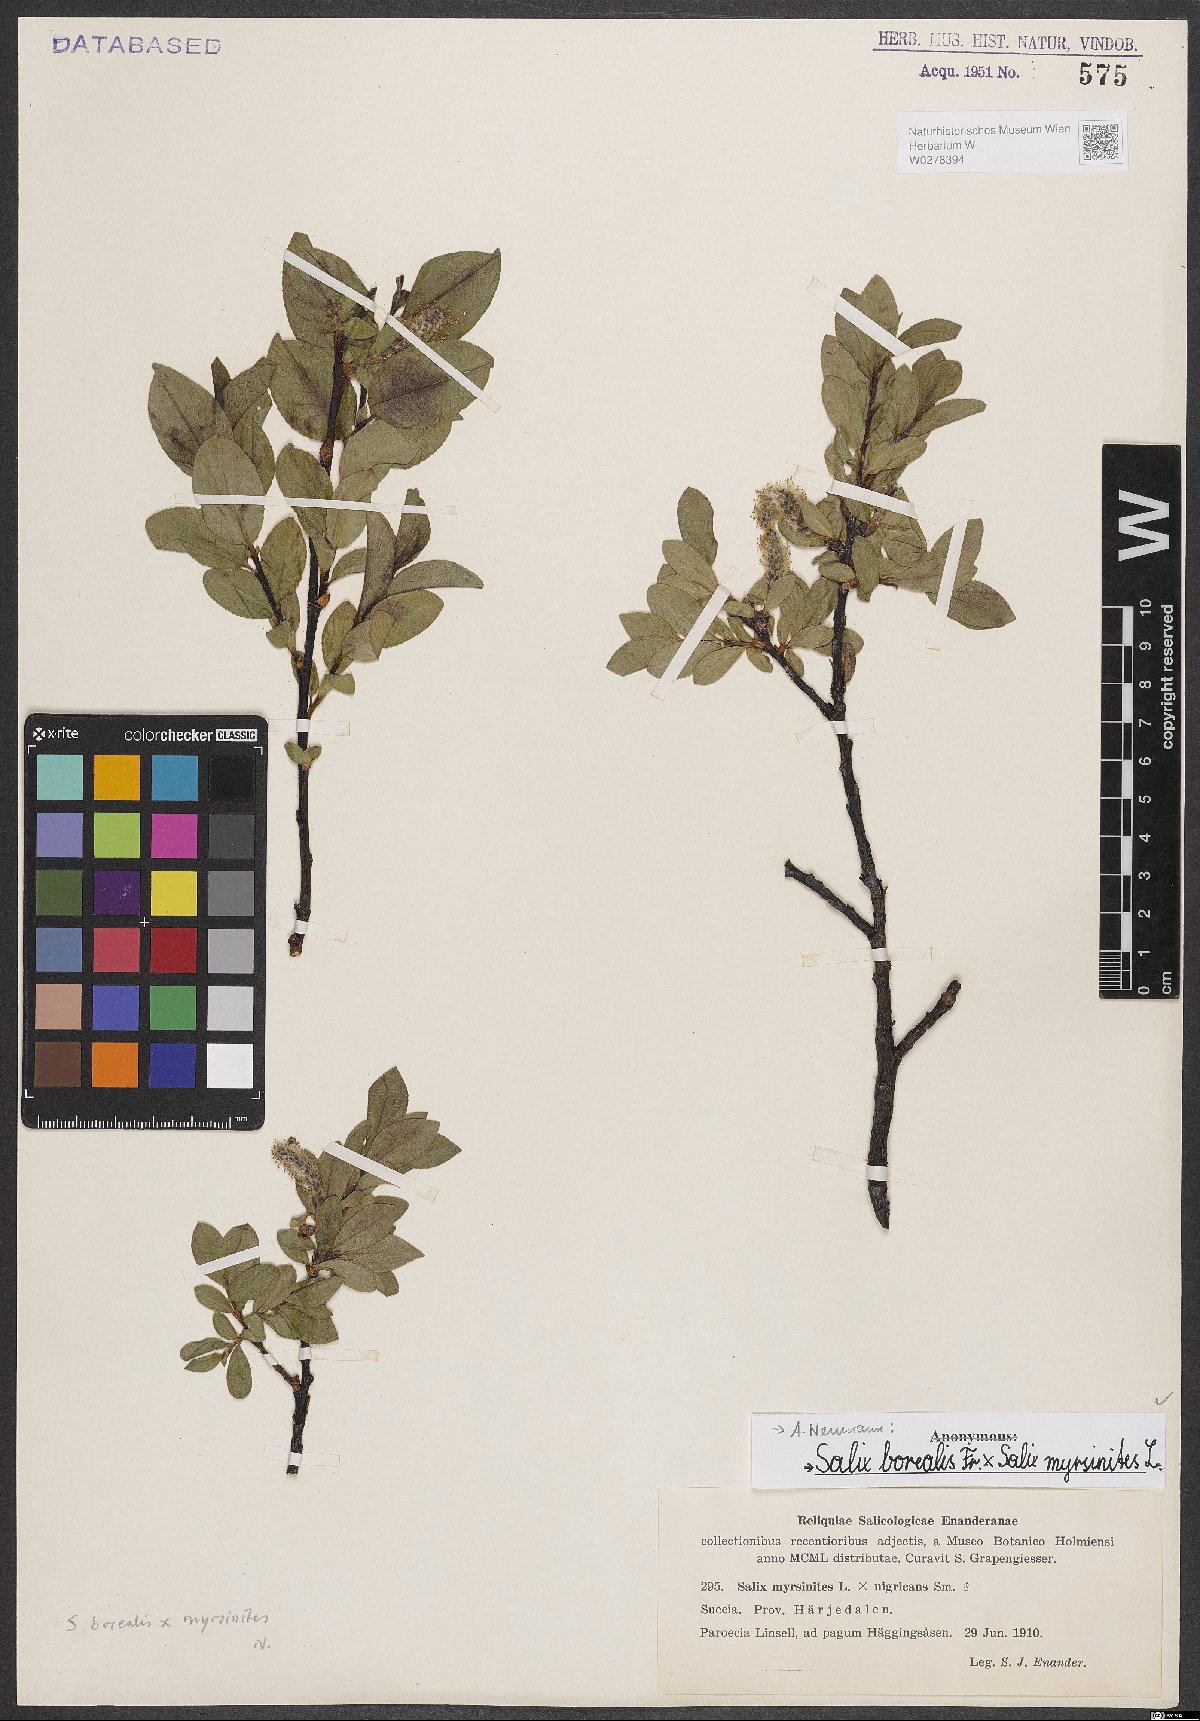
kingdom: Plantae
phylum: Tracheophyta
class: Magnoliopsida
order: Malpighiales
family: Salicaceae
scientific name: Salicaceae
